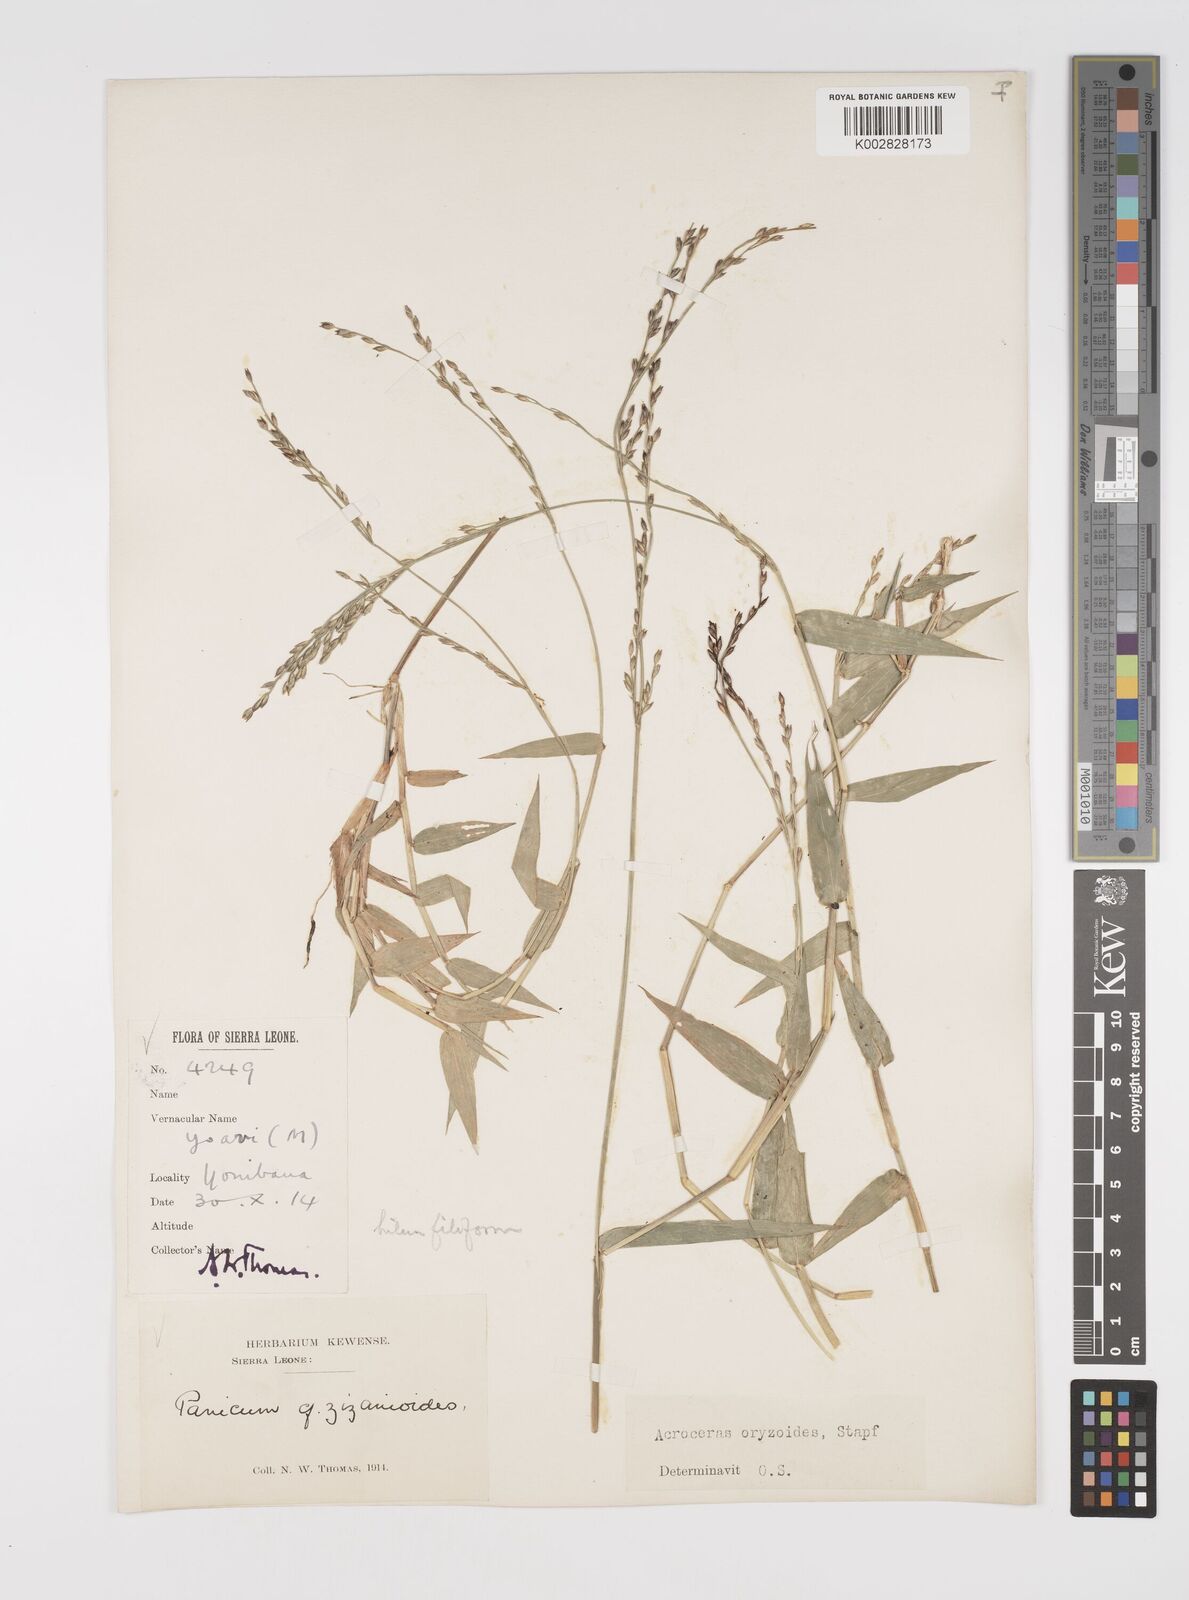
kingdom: Plantae
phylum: Tracheophyta
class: Liliopsida
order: Poales
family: Poaceae
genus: Acroceras
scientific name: Acroceras zizanioides
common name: Oat grass
